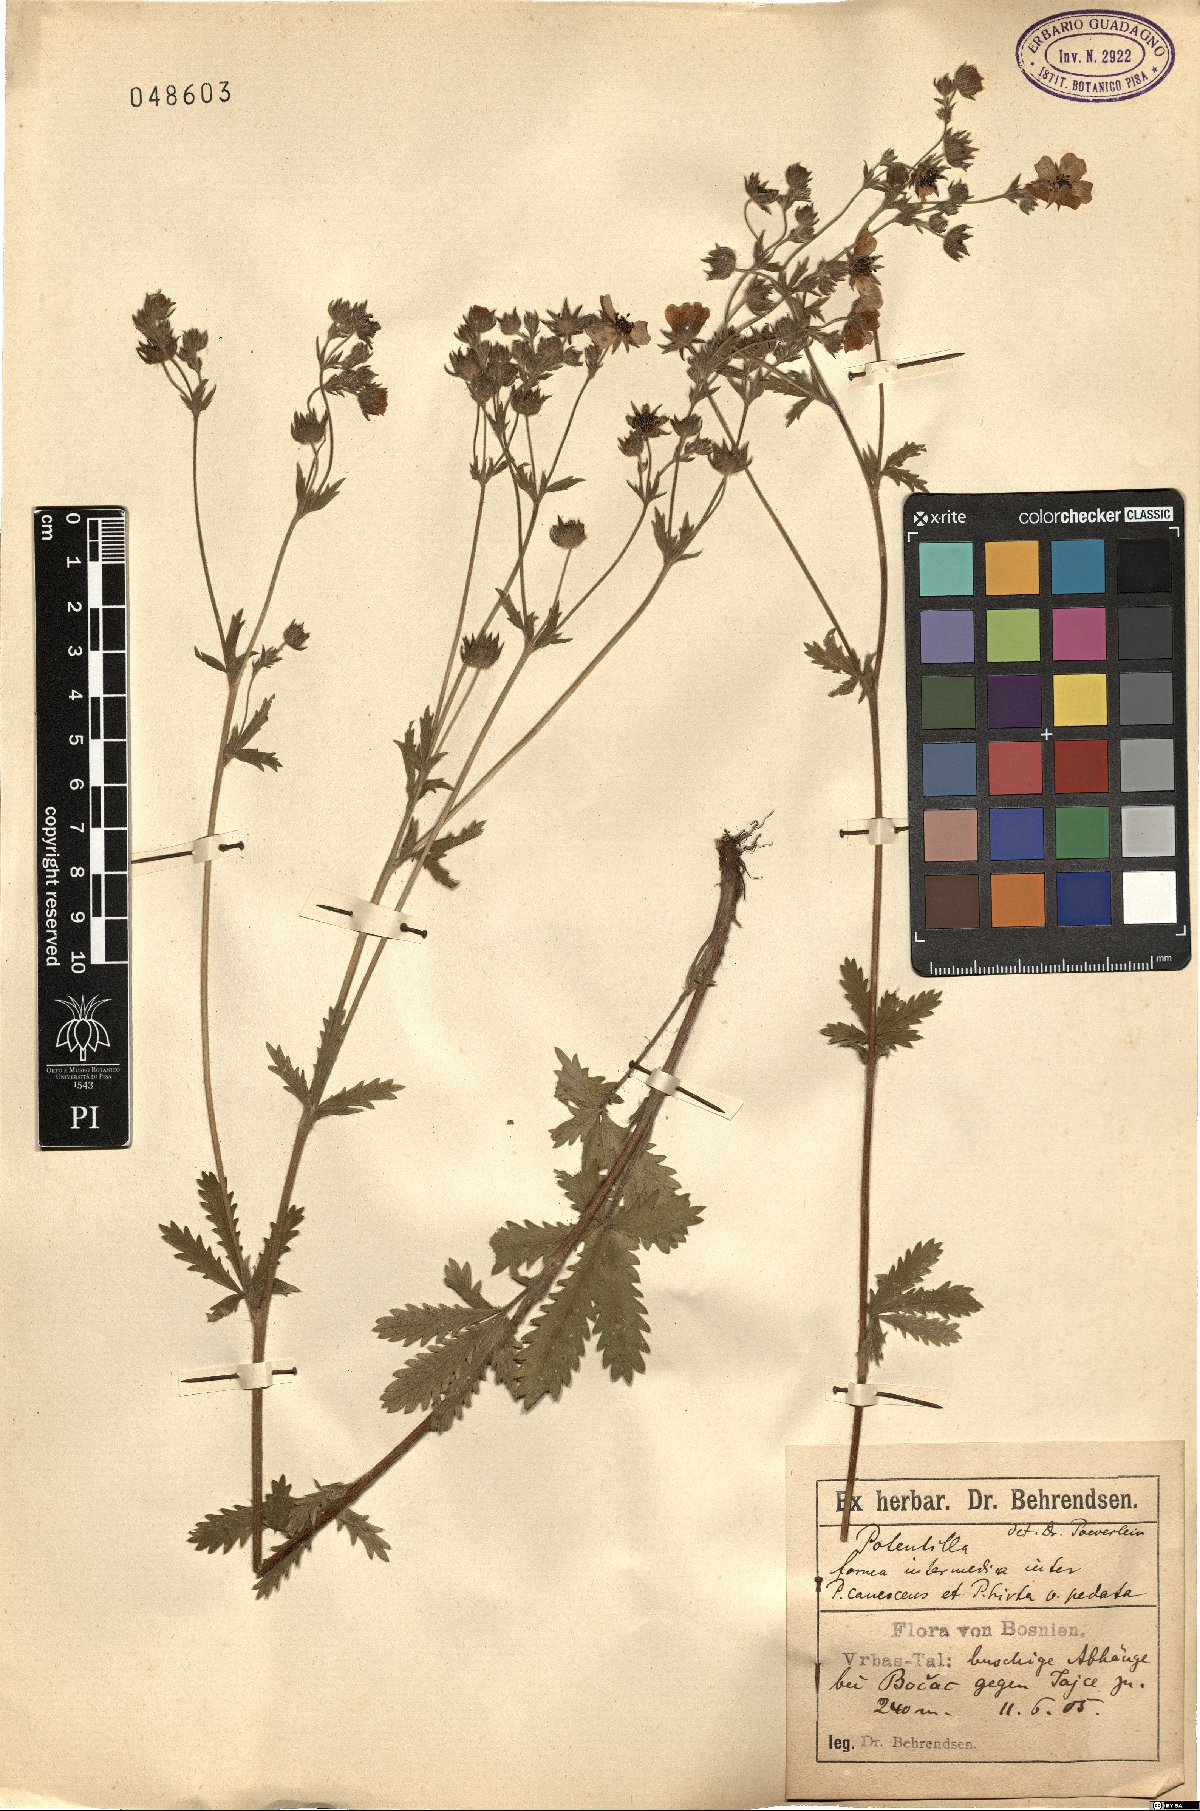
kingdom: Plantae
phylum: Tracheophyta
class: Magnoliopsida
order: Rosales
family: Rosaceae
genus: Potentilla
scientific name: Potentilla inclinata
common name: Grey cinquefoil
